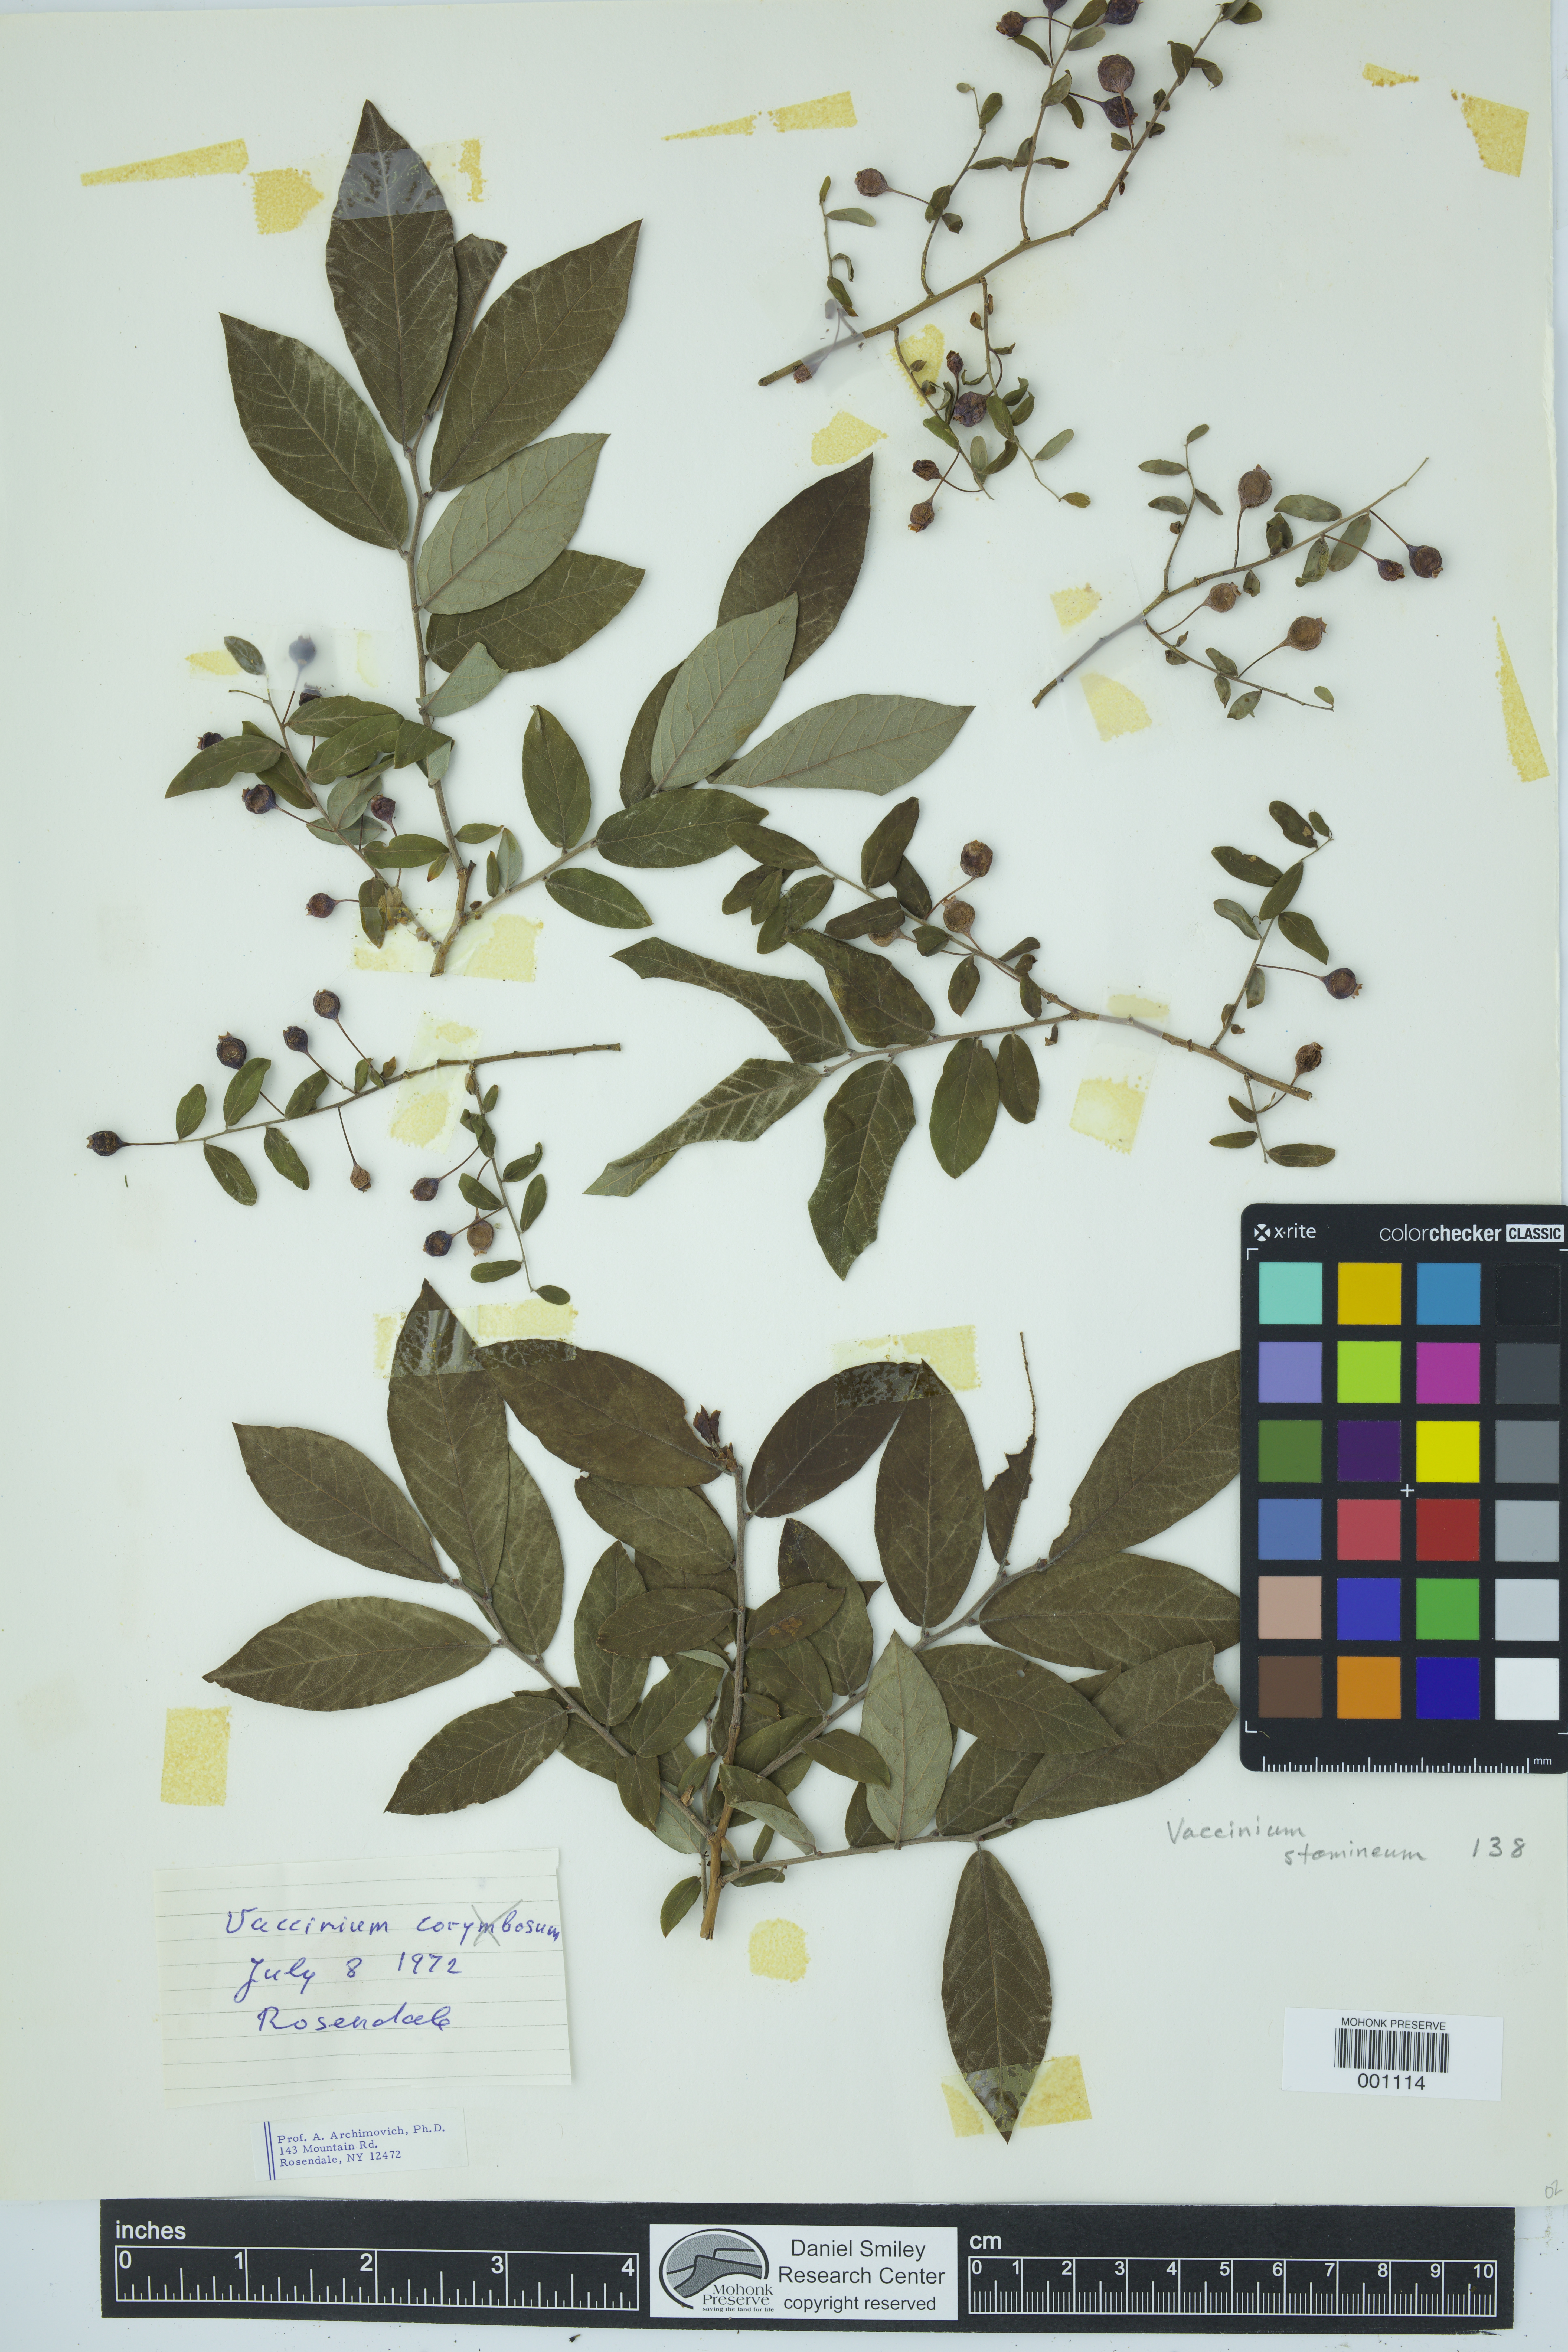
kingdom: Plantae
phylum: Tracheophyta
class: Magnoliopsida
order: Ericales
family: Ericaceae
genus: Vaccinium
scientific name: Vaccinium stamineum
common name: Deerberry
